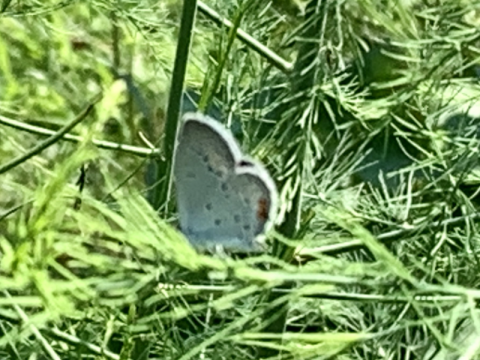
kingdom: Animalia
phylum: Arthropoda
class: Insecta
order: Lepidoptera
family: Lycaenidae
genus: Elkalyce
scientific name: Elkalyce comyntas
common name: Eastern Tailed-Blue
